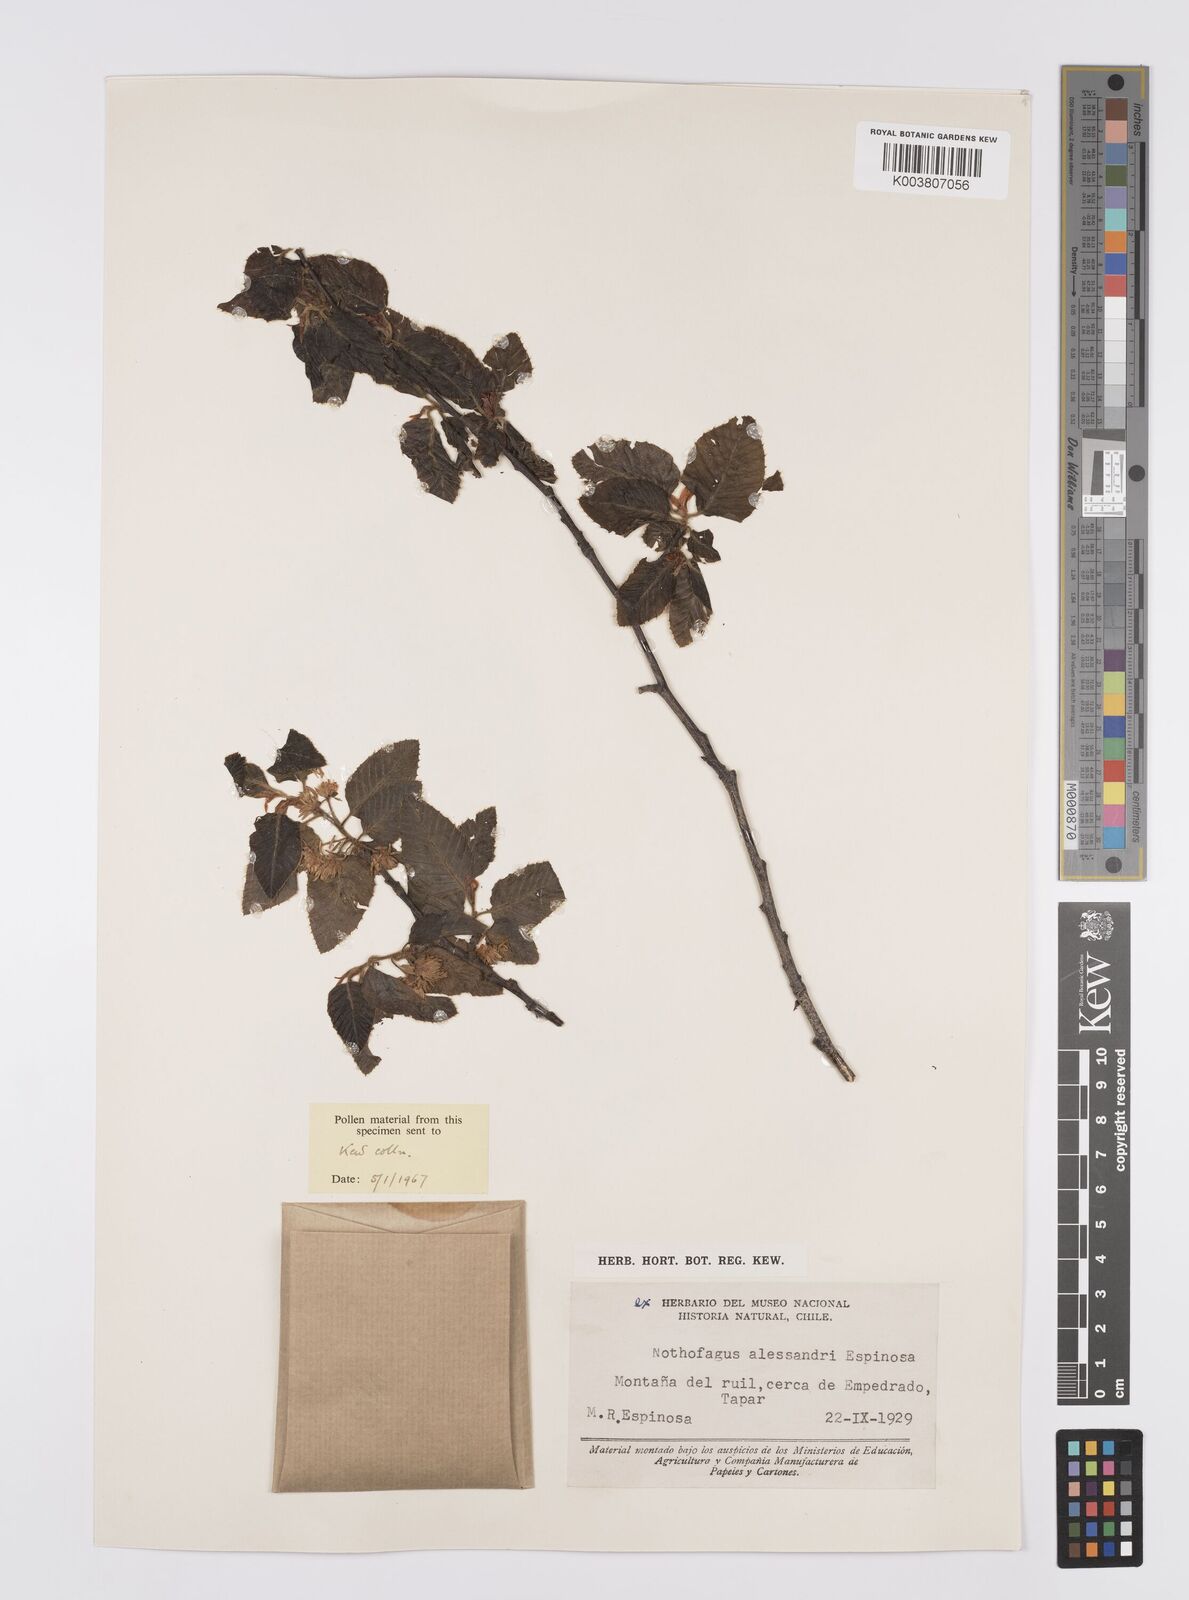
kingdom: Plantae
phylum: Tracheophyta
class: Magnoliopsida
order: Fagales
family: Nothofagaceae
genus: Nothofagus
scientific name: Nothofagus alessandrii
